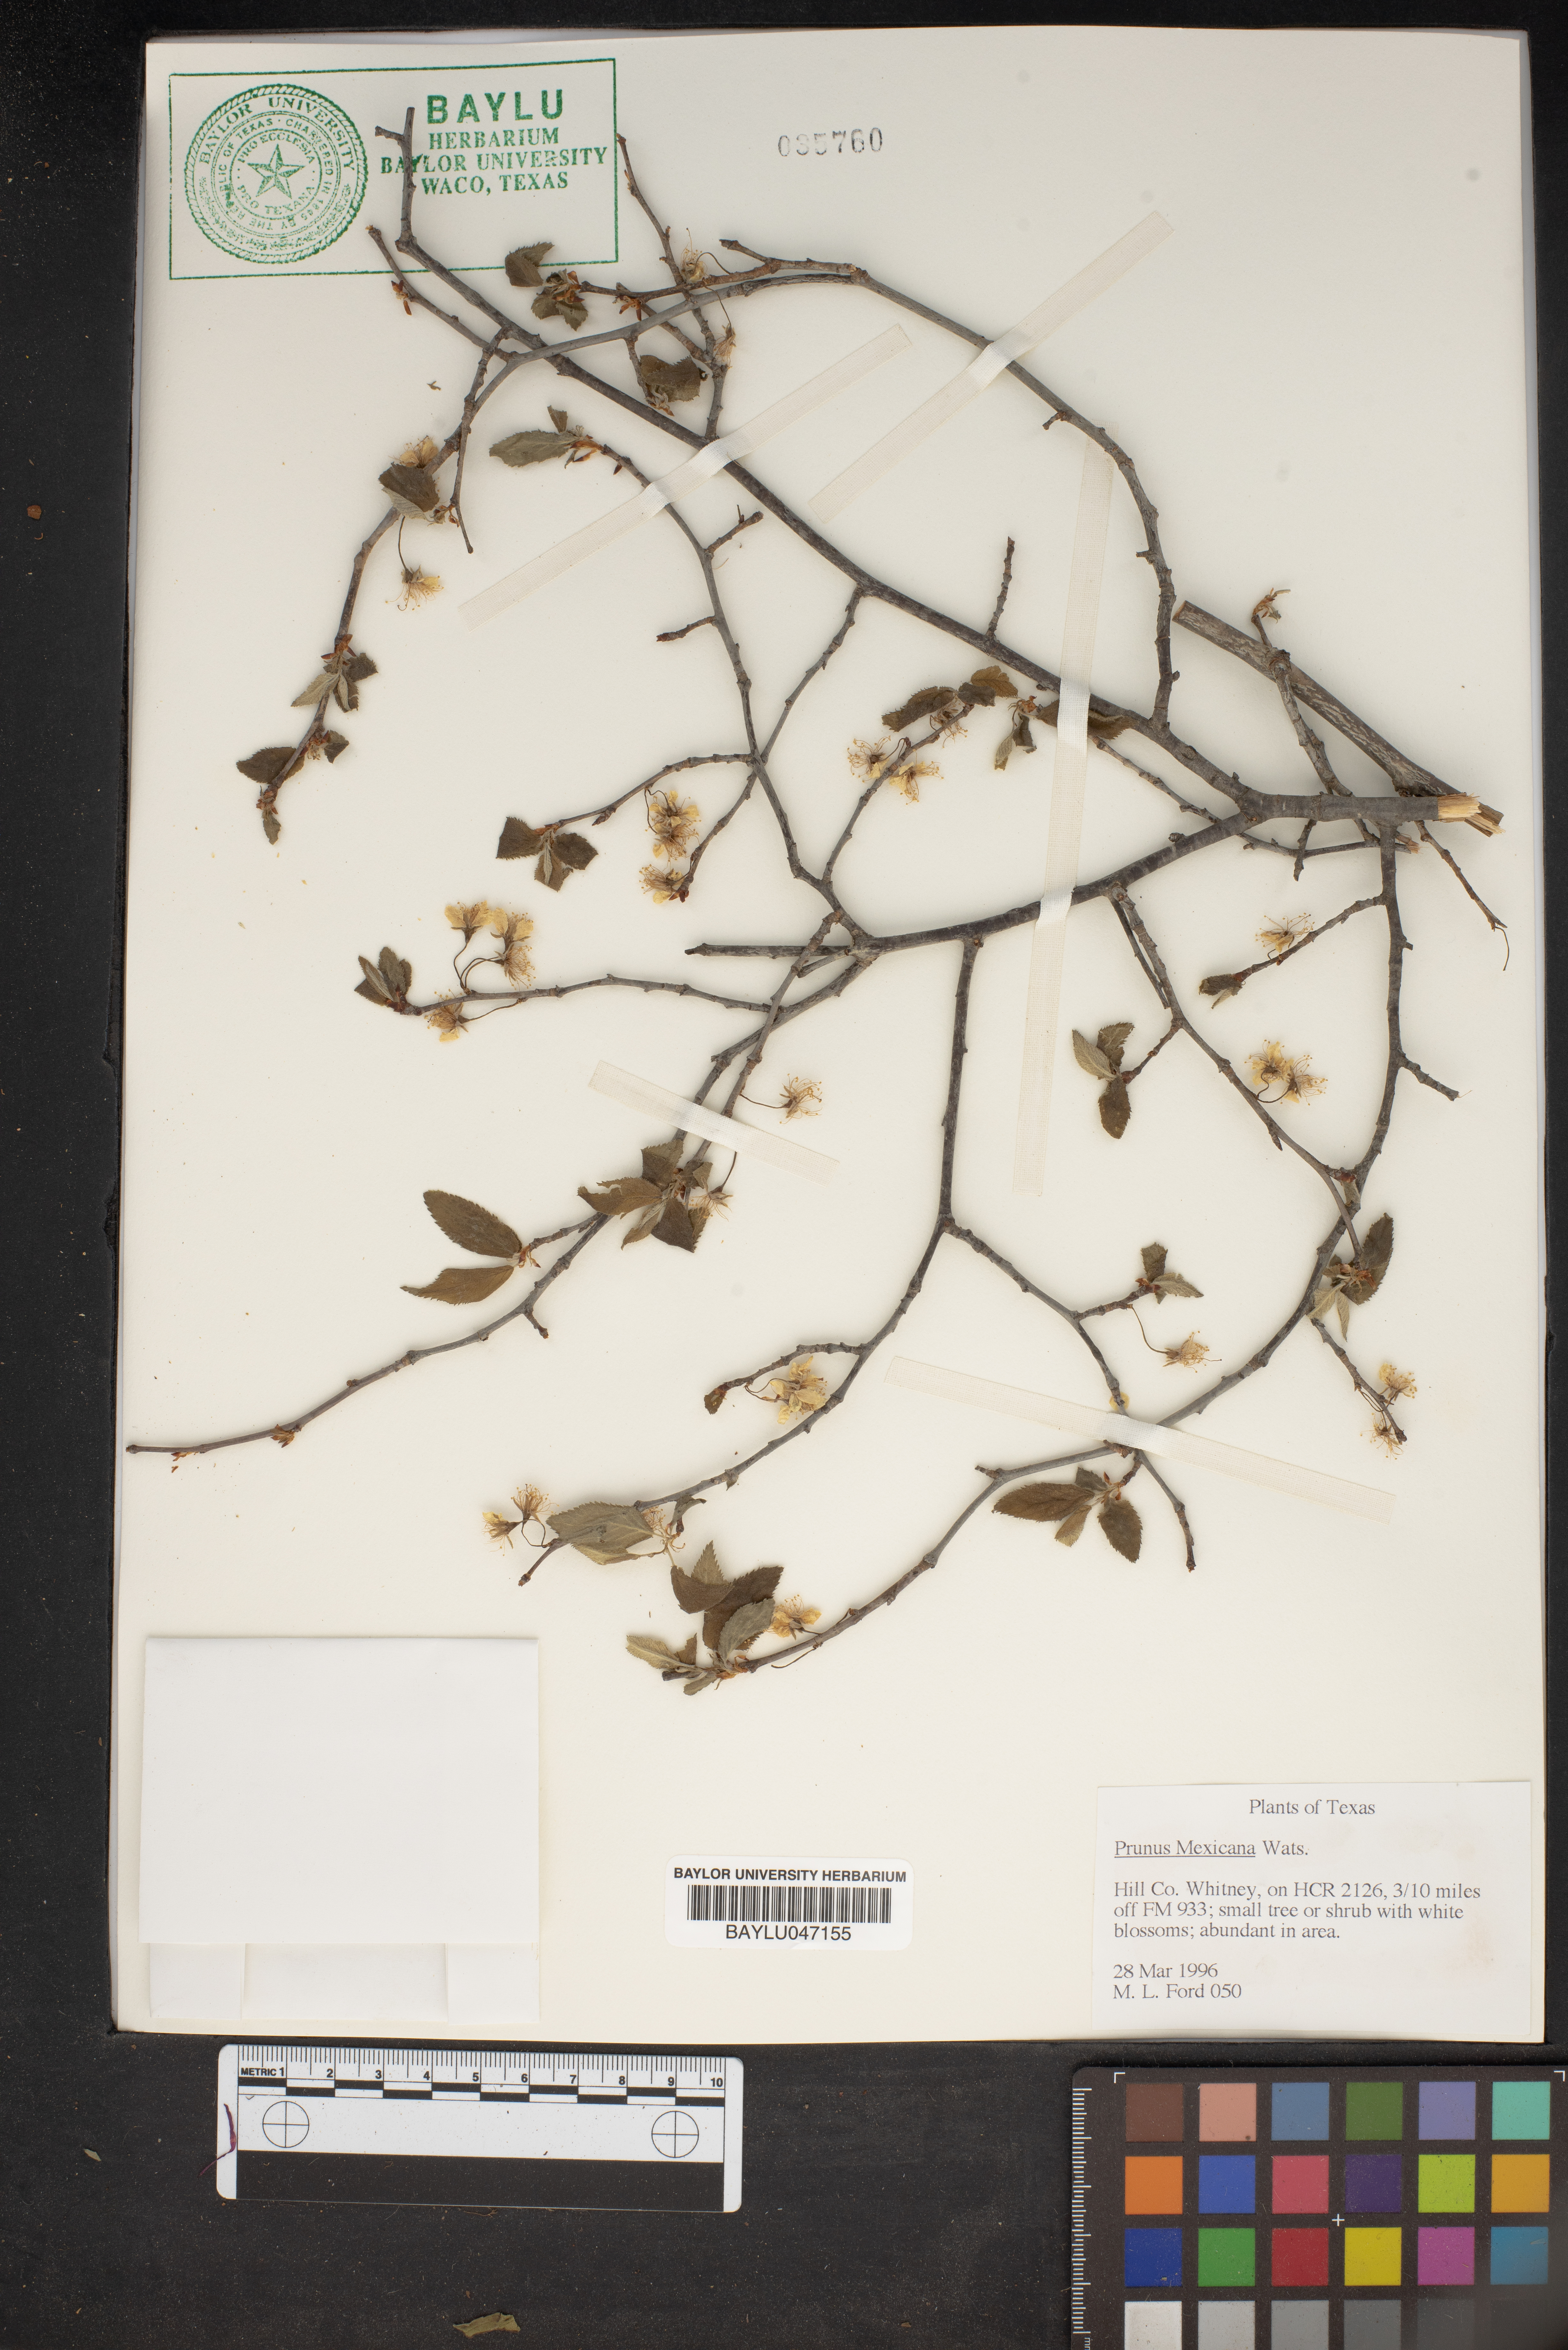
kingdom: Plantae
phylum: Tracheophyta
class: Magnoliopsida
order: Rosales
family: Rosaceae
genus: Prunus
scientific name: Prunus mexicana
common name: Mexican plum
